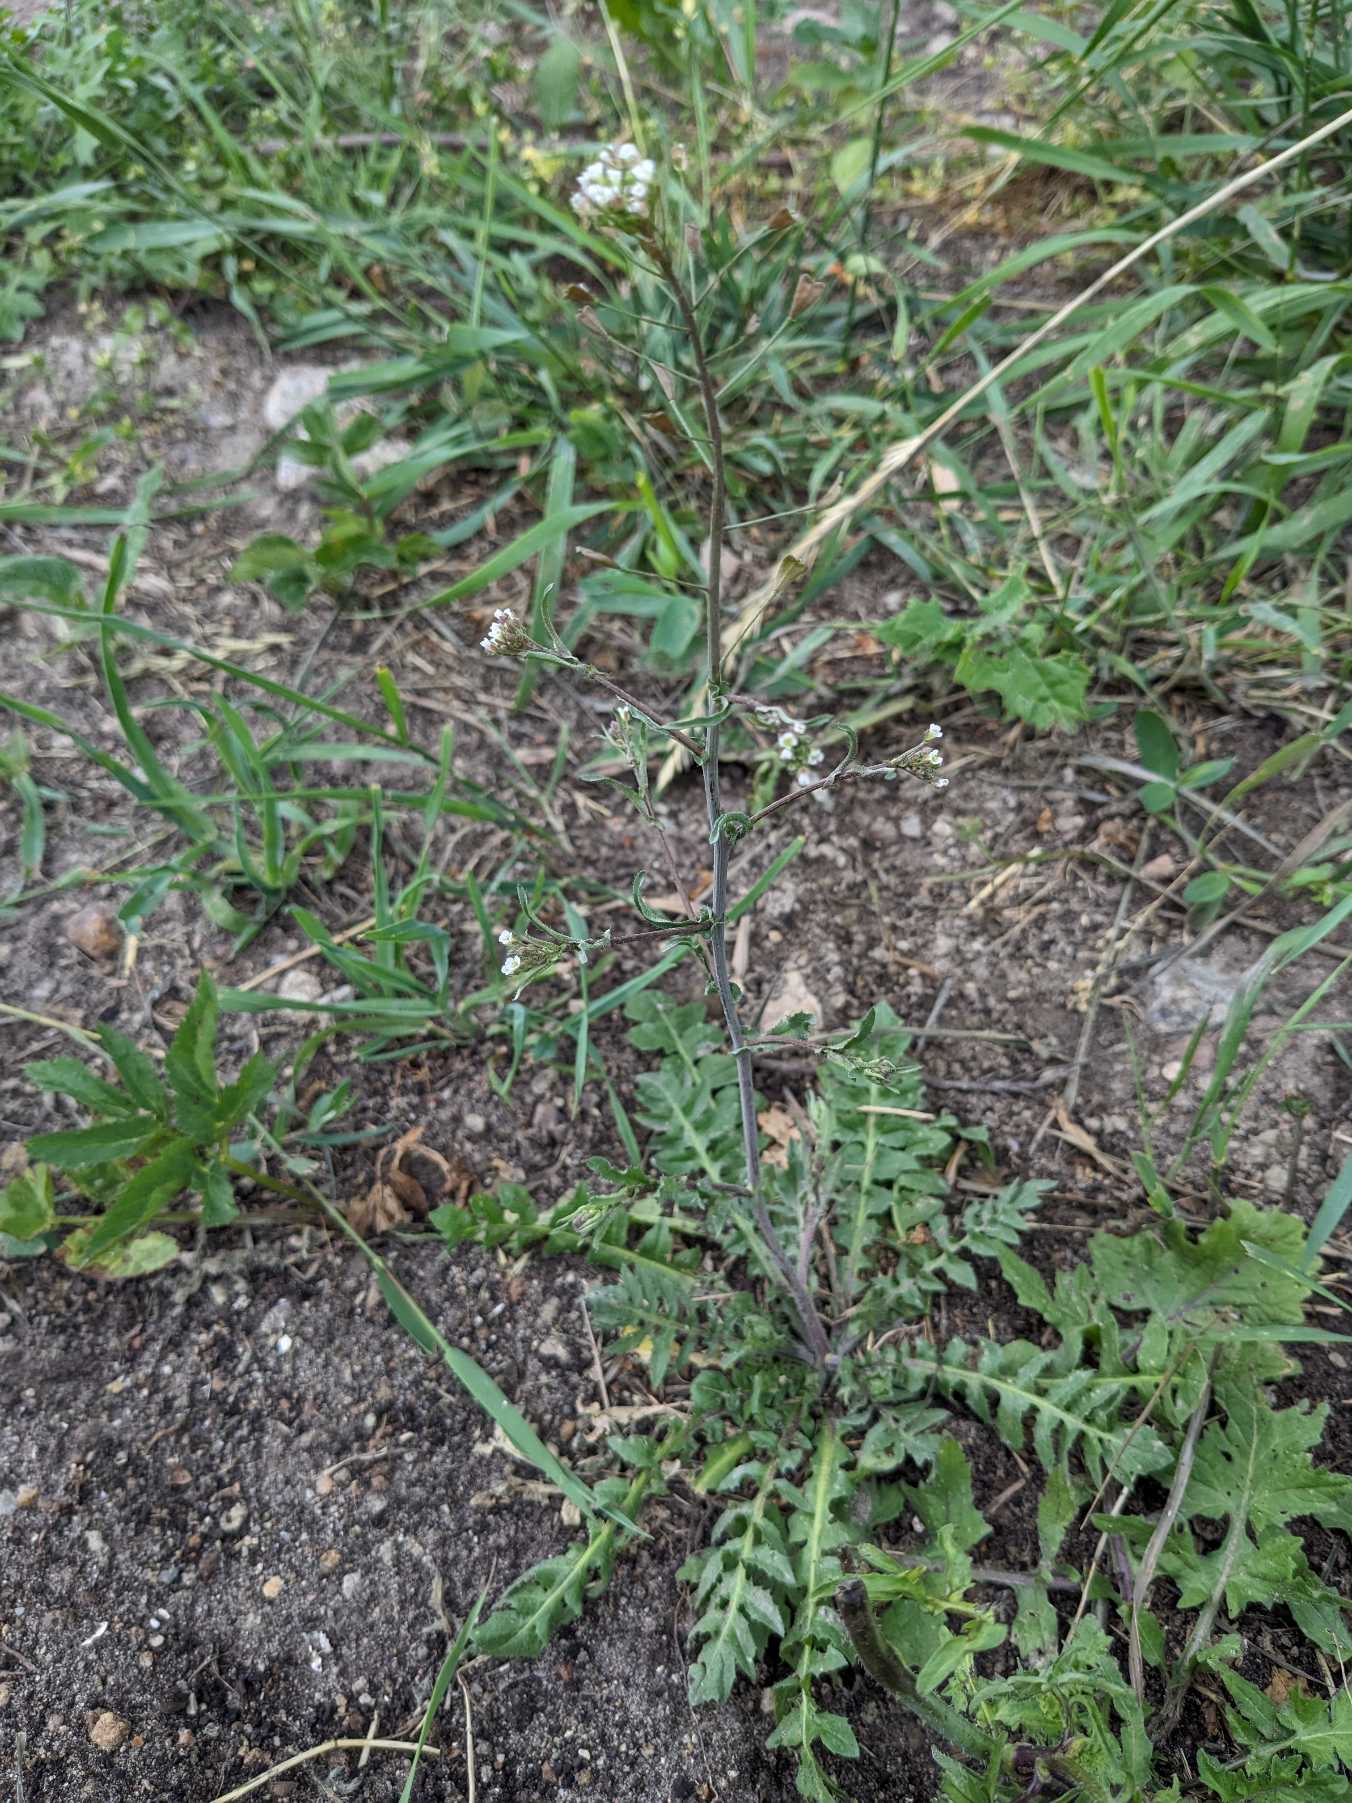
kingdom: Plantae
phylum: Tracheophyta
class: Magnoliopsida
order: Brassicales
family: Brassicaceae
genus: Capsella
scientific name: Capsella bursa-pastoris
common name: Hyrdetaske
